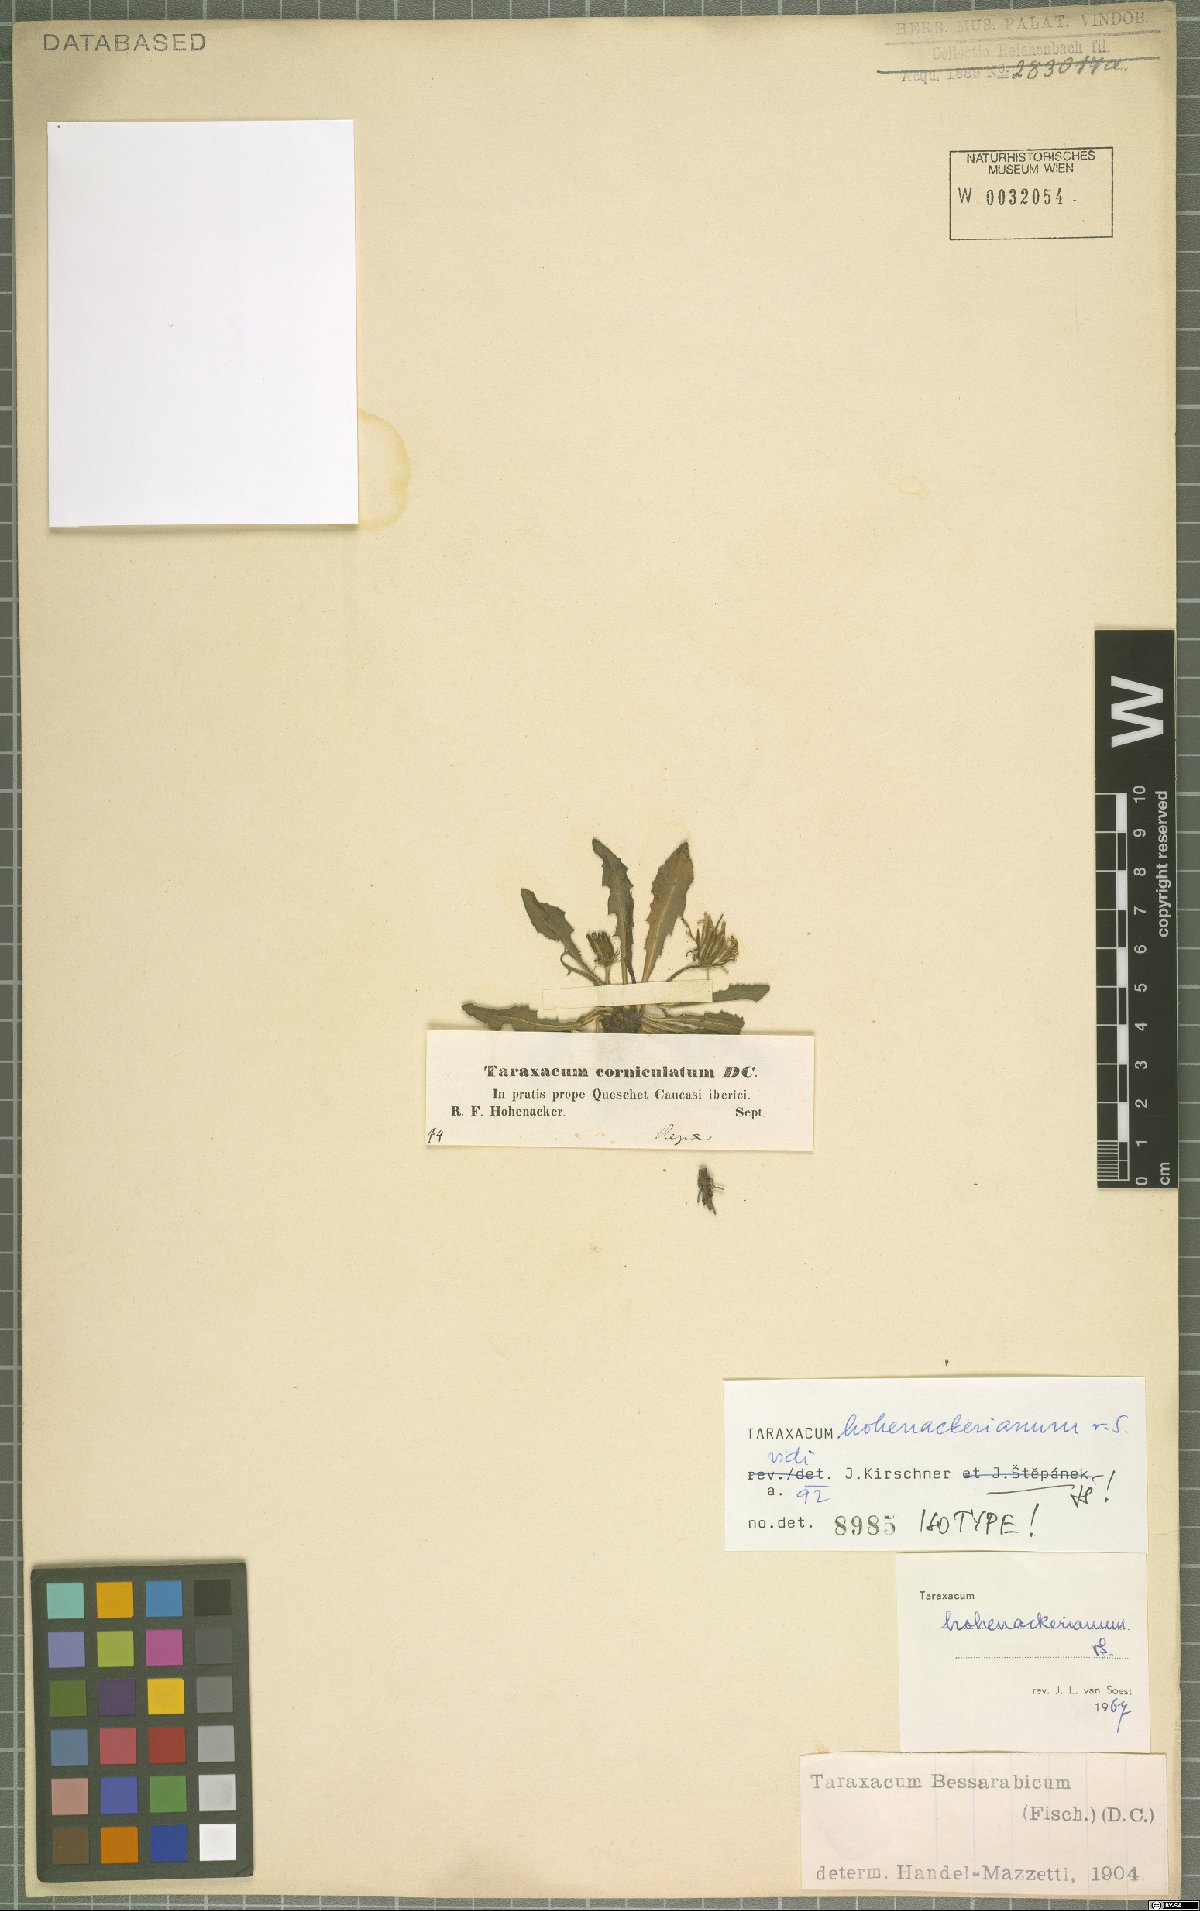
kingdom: Plantae
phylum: Tracheophyta
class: Magnoliopsida
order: Asterales
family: Asteraceae
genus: Taraxacum
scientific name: Taraxacum stenocephalum
